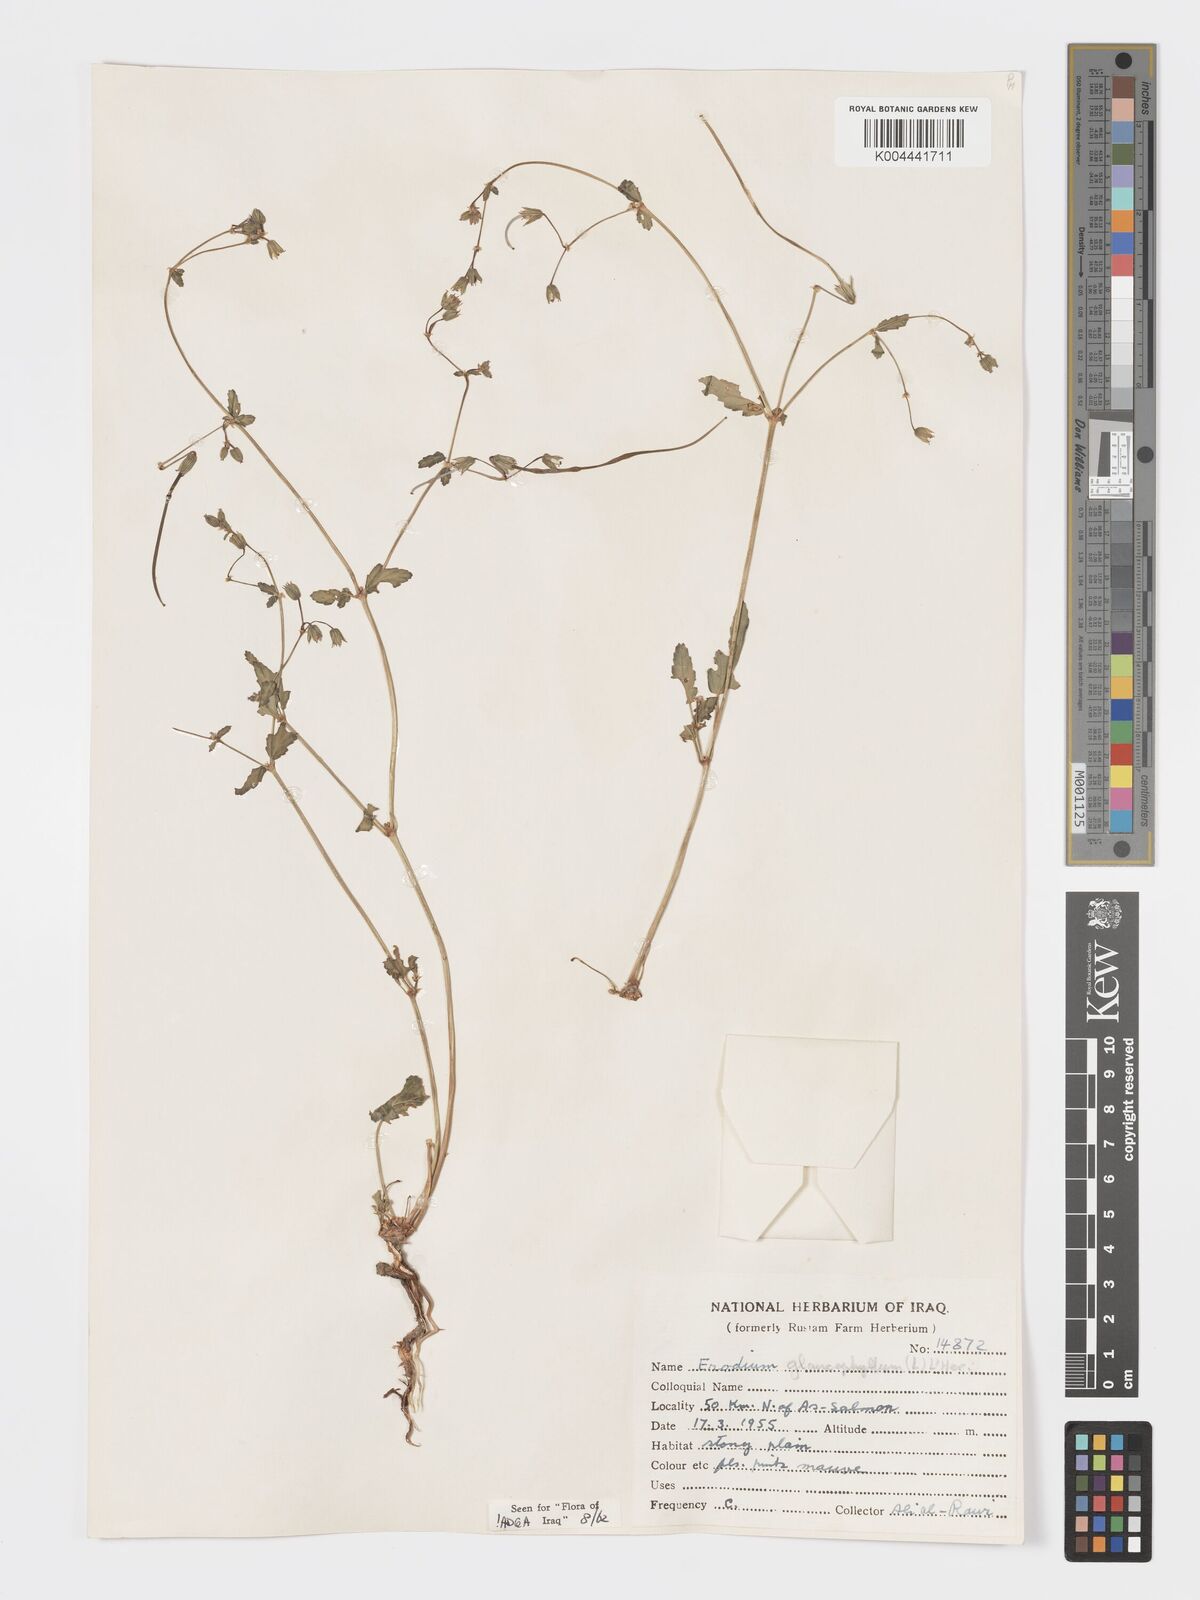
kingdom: Plantae
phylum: Tracheophyta
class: Magnoliopsida
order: Geraniales
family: Geraniaceae
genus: Erodium
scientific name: Erodium glaucophyllum
